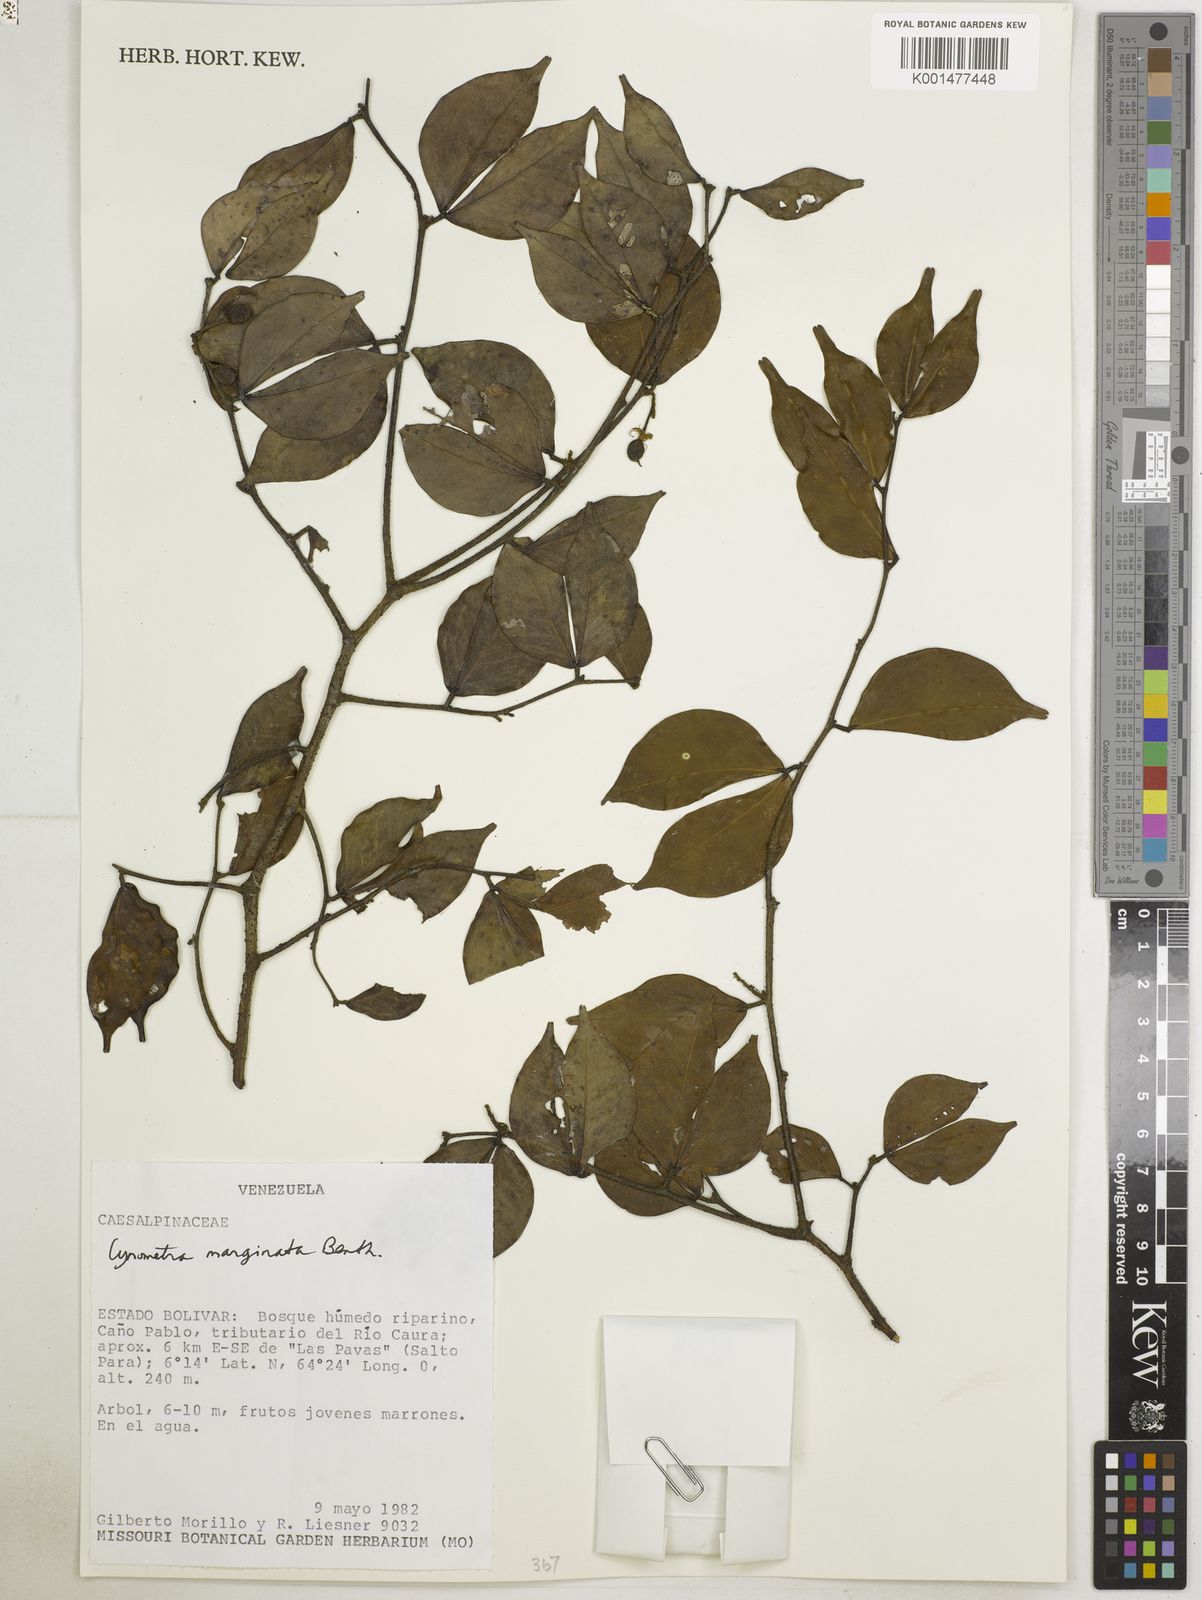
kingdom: Plantae
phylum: Tracheophyta
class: Magnoliopsida
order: Fabales
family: Fabaceae
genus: Cynometra
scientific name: Cynometra marginata
